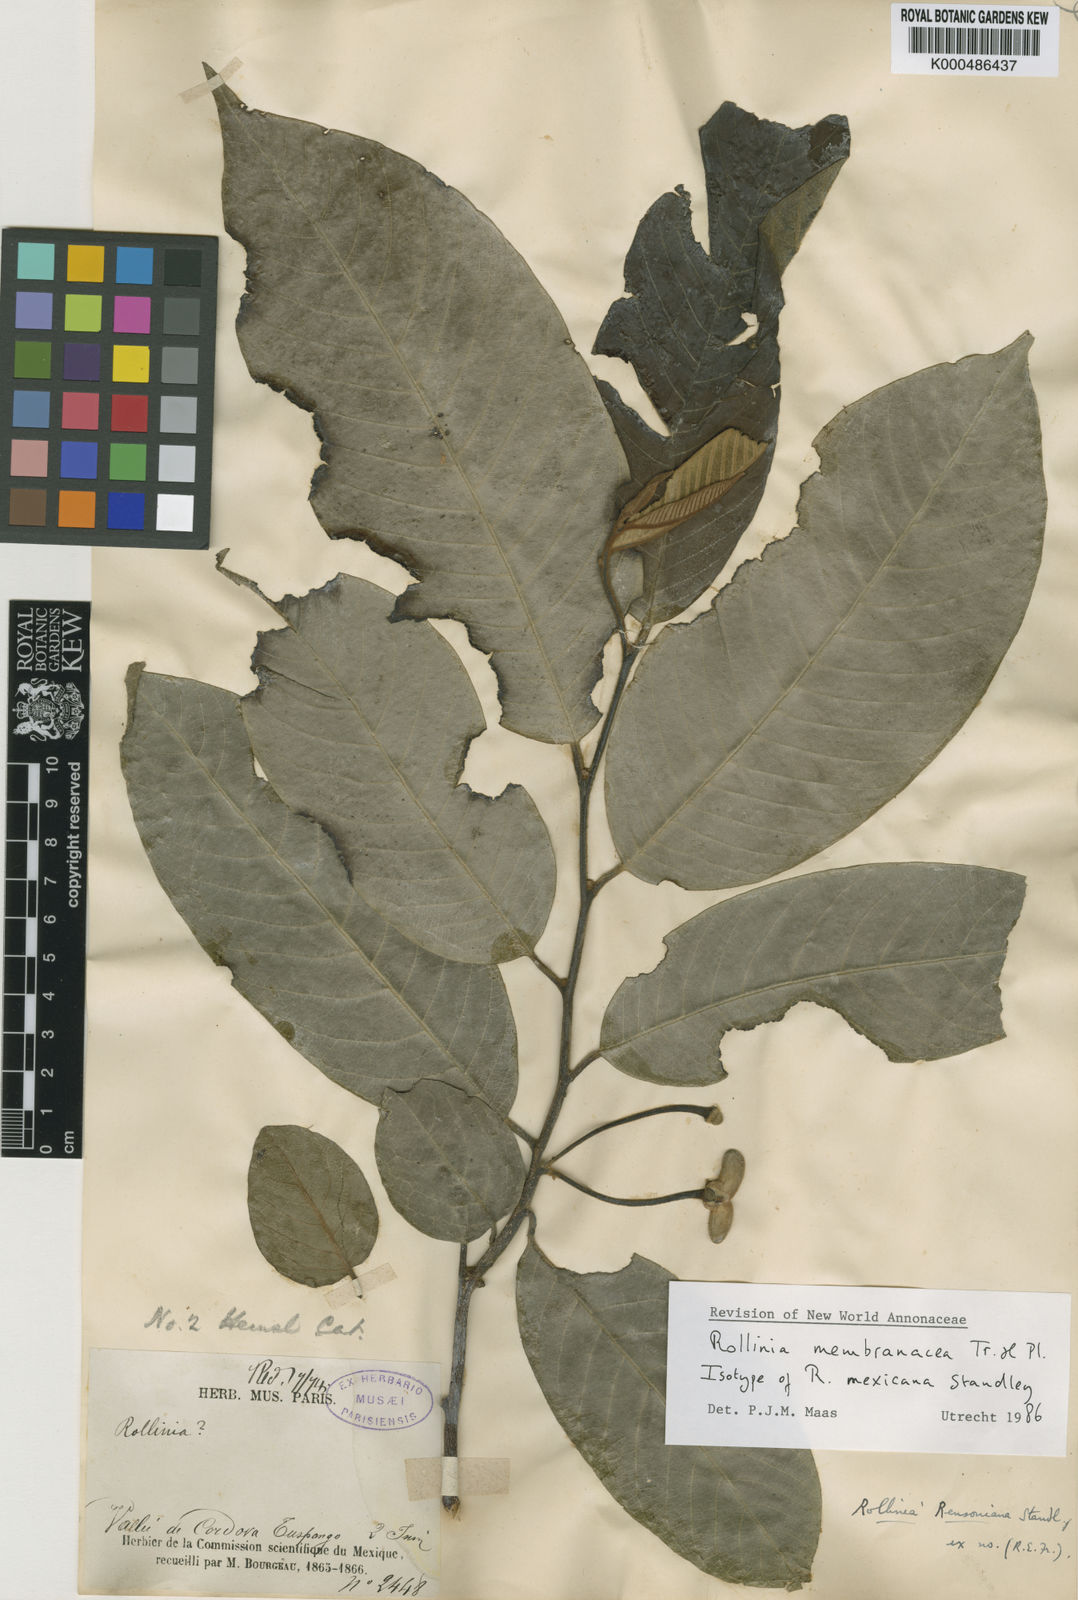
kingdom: Plantae
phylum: Tracheophyta
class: Magnoliopsida
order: Magnoliales
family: Annonaceae
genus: Annona
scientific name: Annona rensoniana
